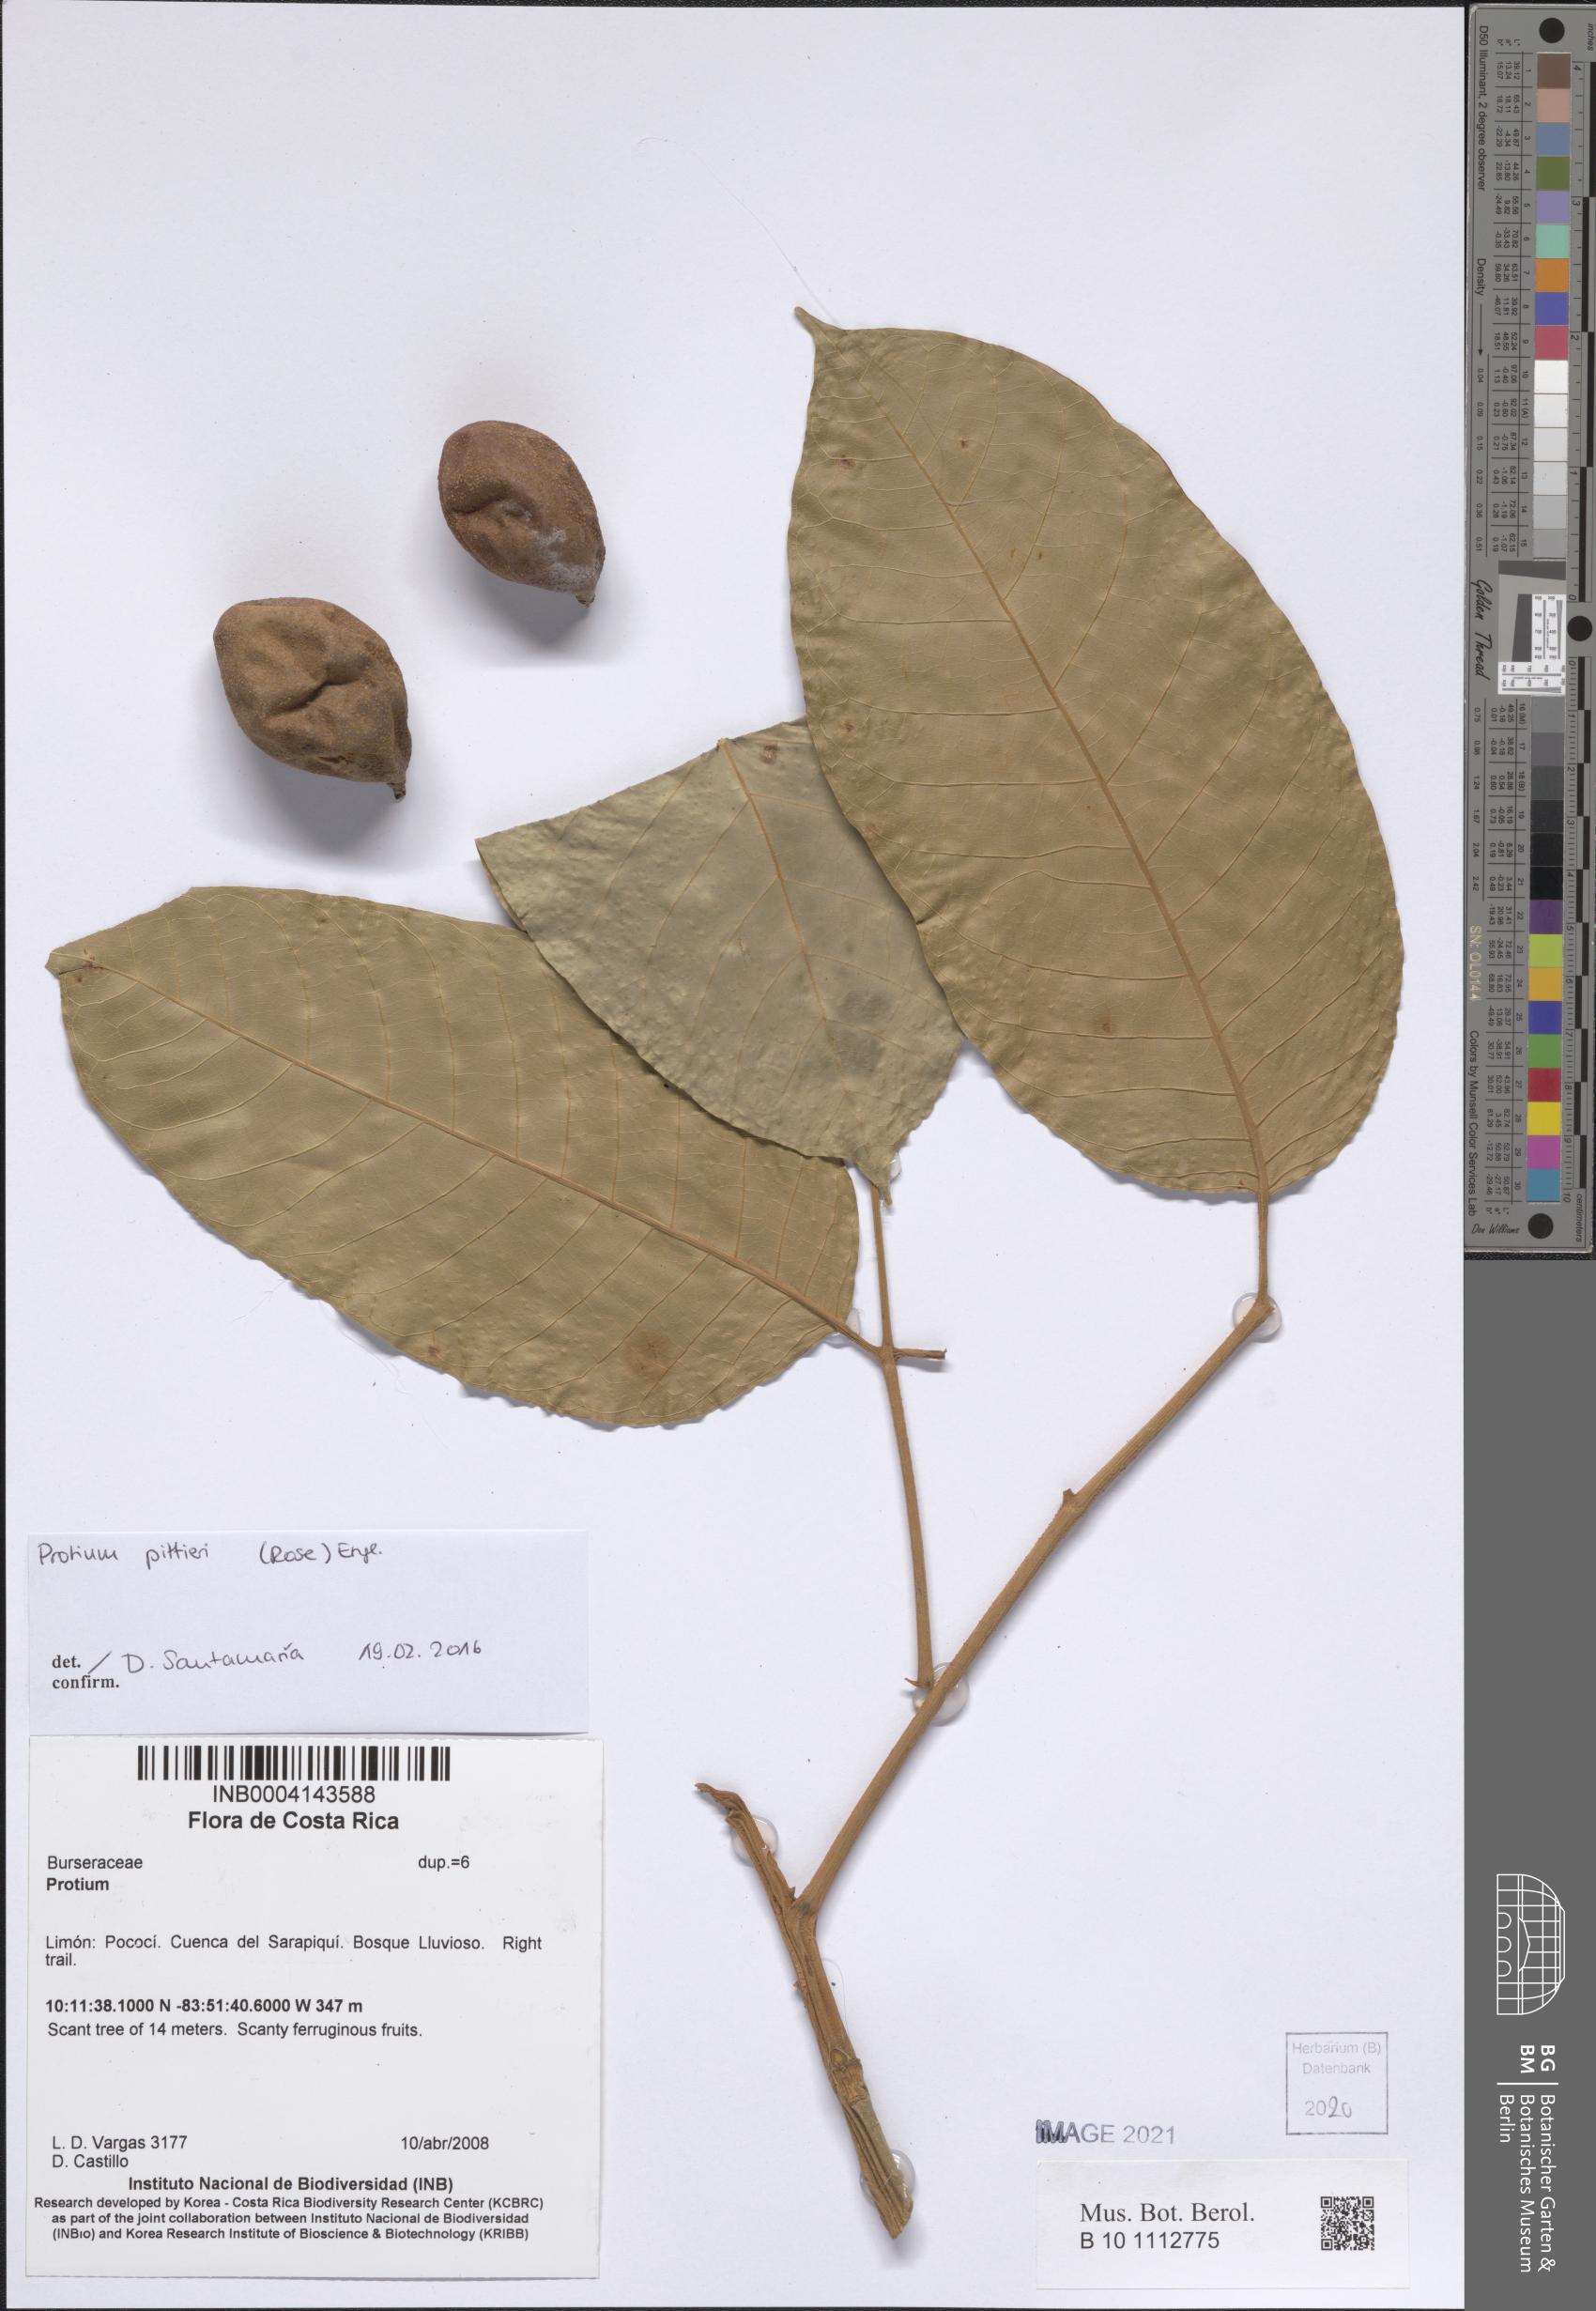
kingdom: Plantae
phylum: Tracheophyta
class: Magnoliopsida
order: Sapindales
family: Burseraceae
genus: Protium
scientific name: Protium
